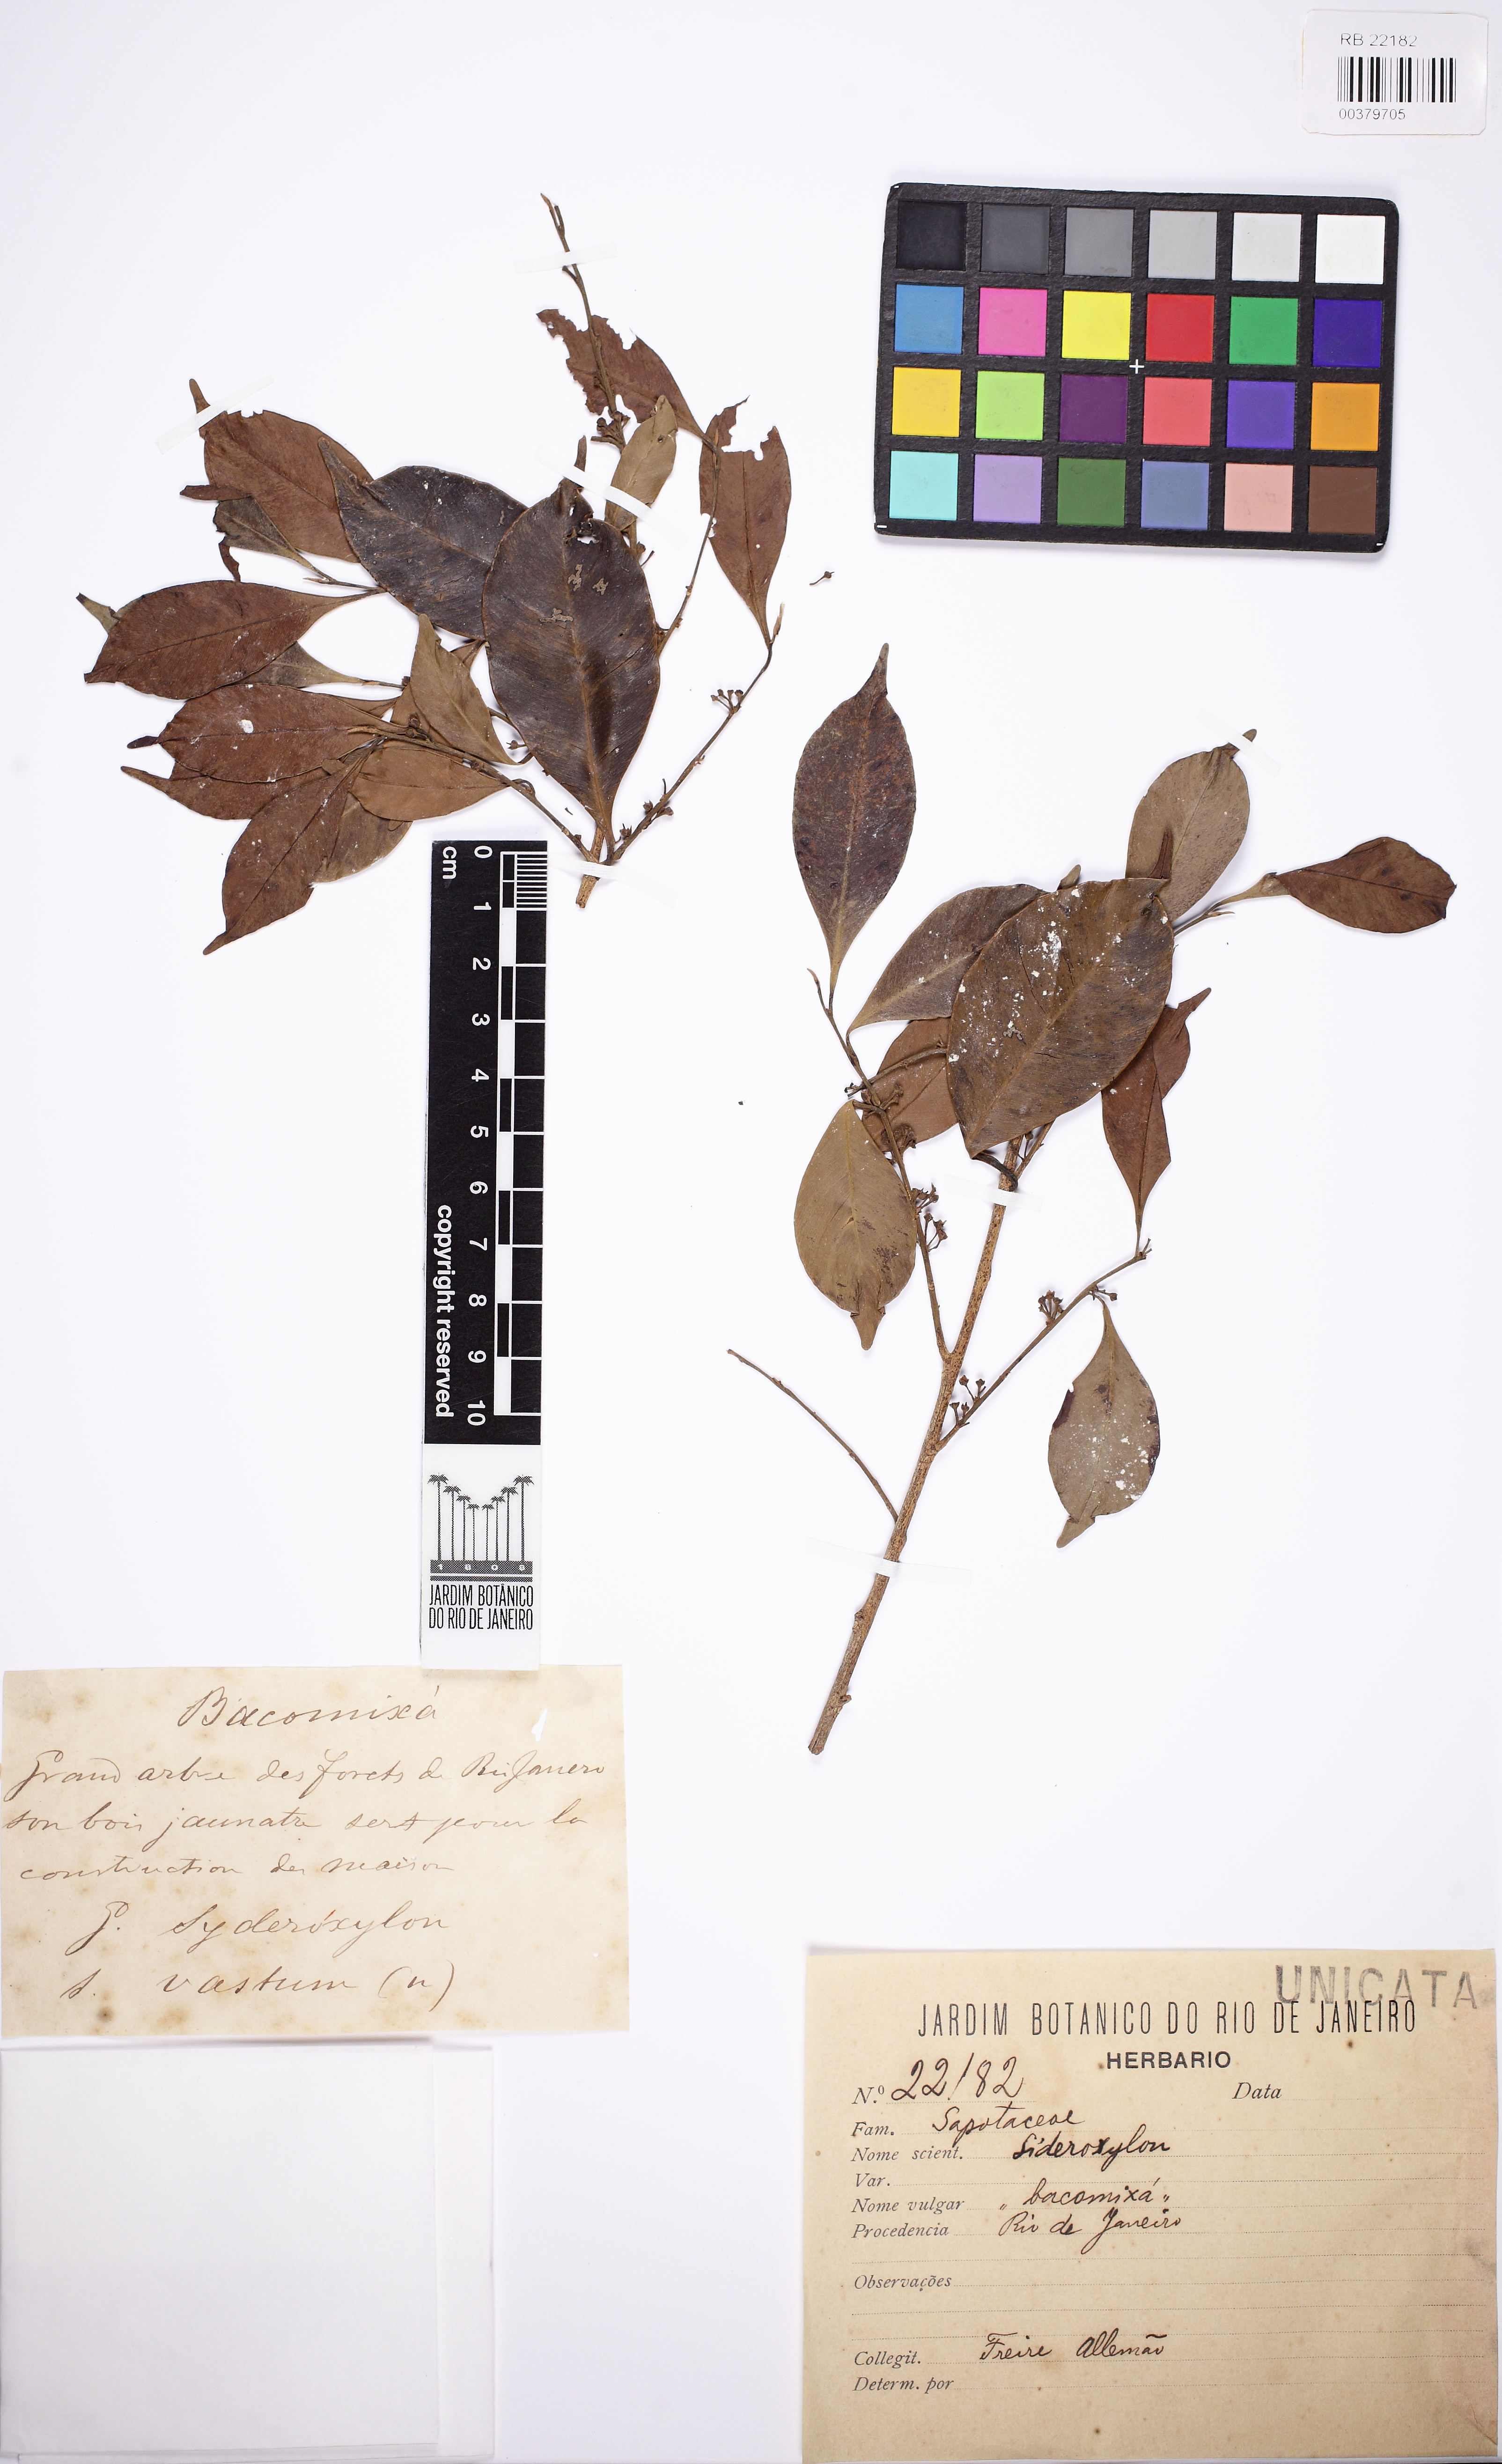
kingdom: Plantae
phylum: Tracheophyta
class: Magnoliopsida
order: Ericales
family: Sapotaceae
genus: Micropholis
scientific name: Micropholis
